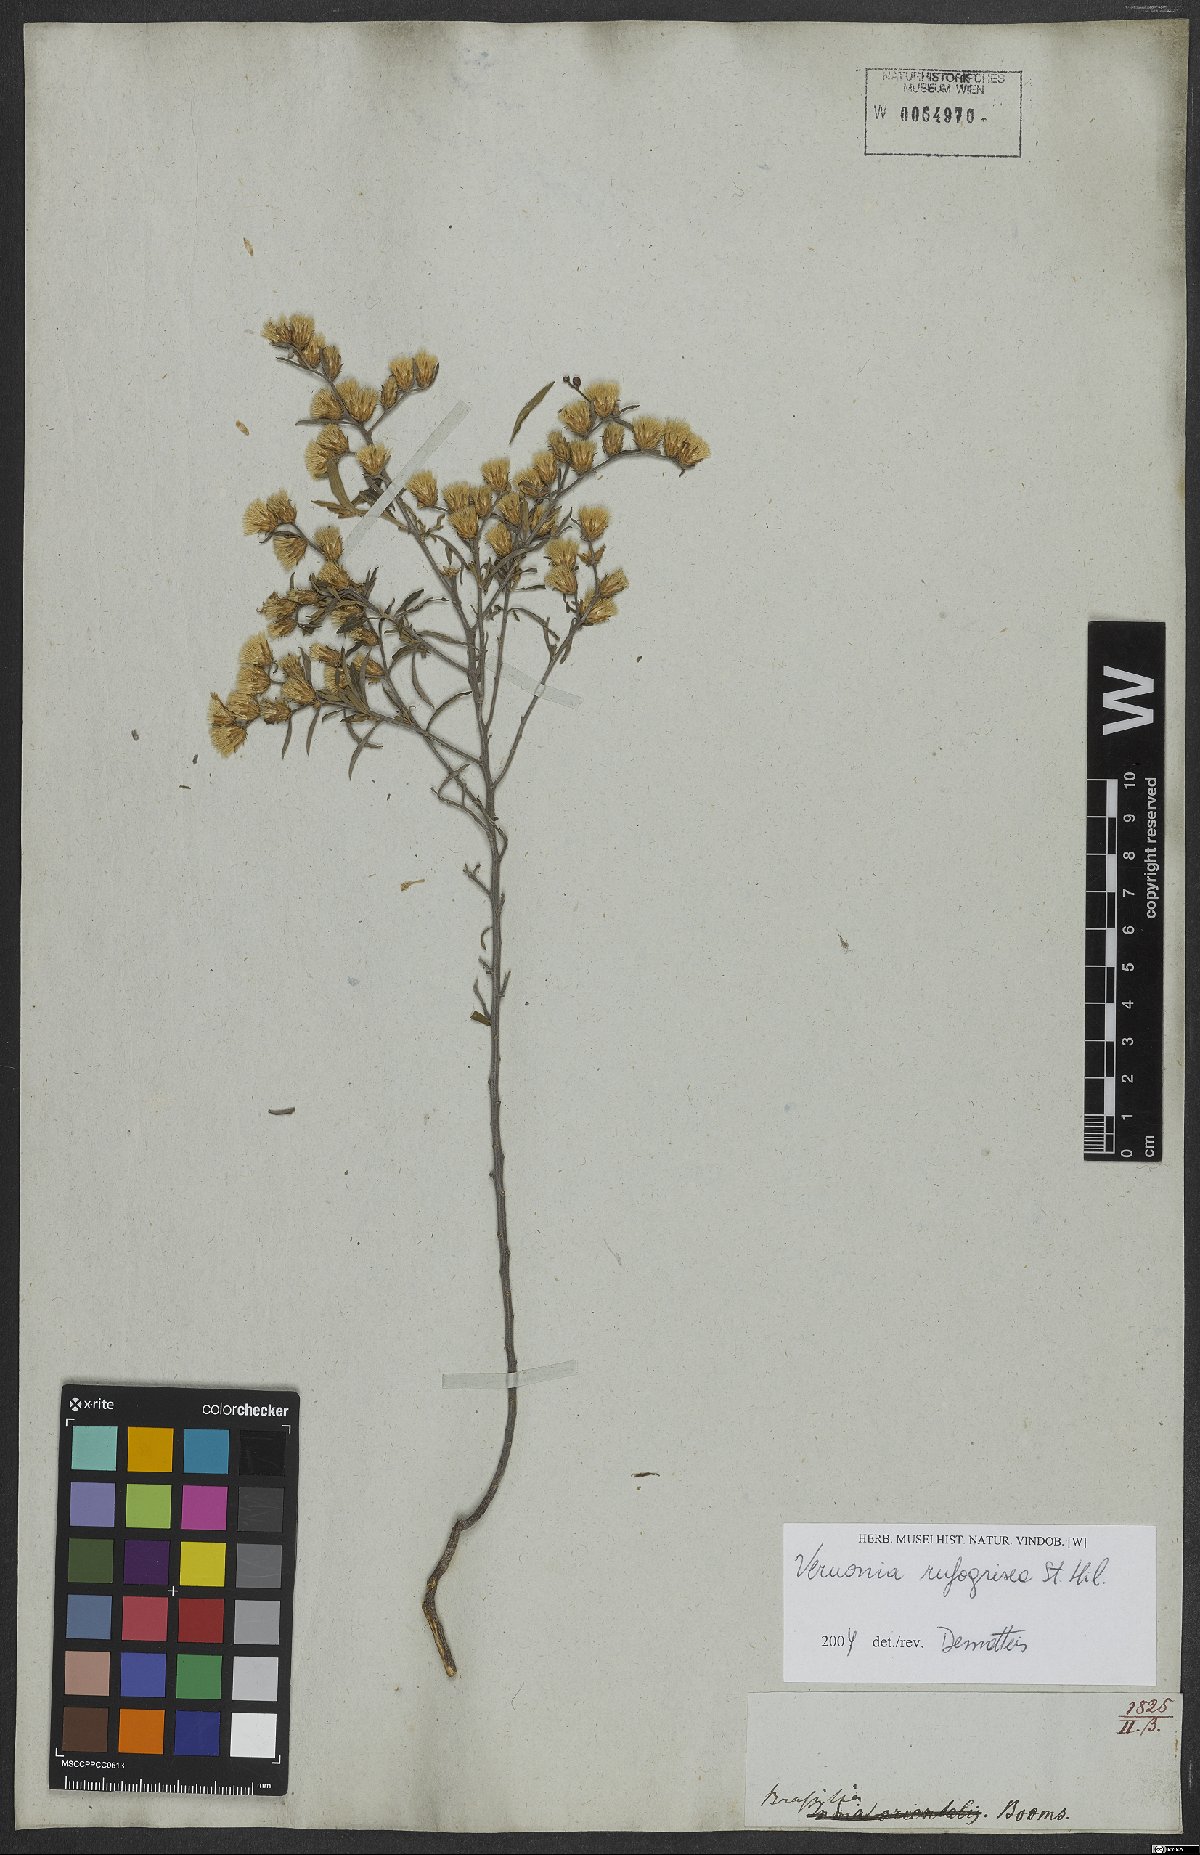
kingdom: Plantae
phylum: Tracheophyta
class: Magnoliopsida
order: Asterales
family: Asteraceae
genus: Lepidaploa
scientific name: Lepidaploa rufogrisea
